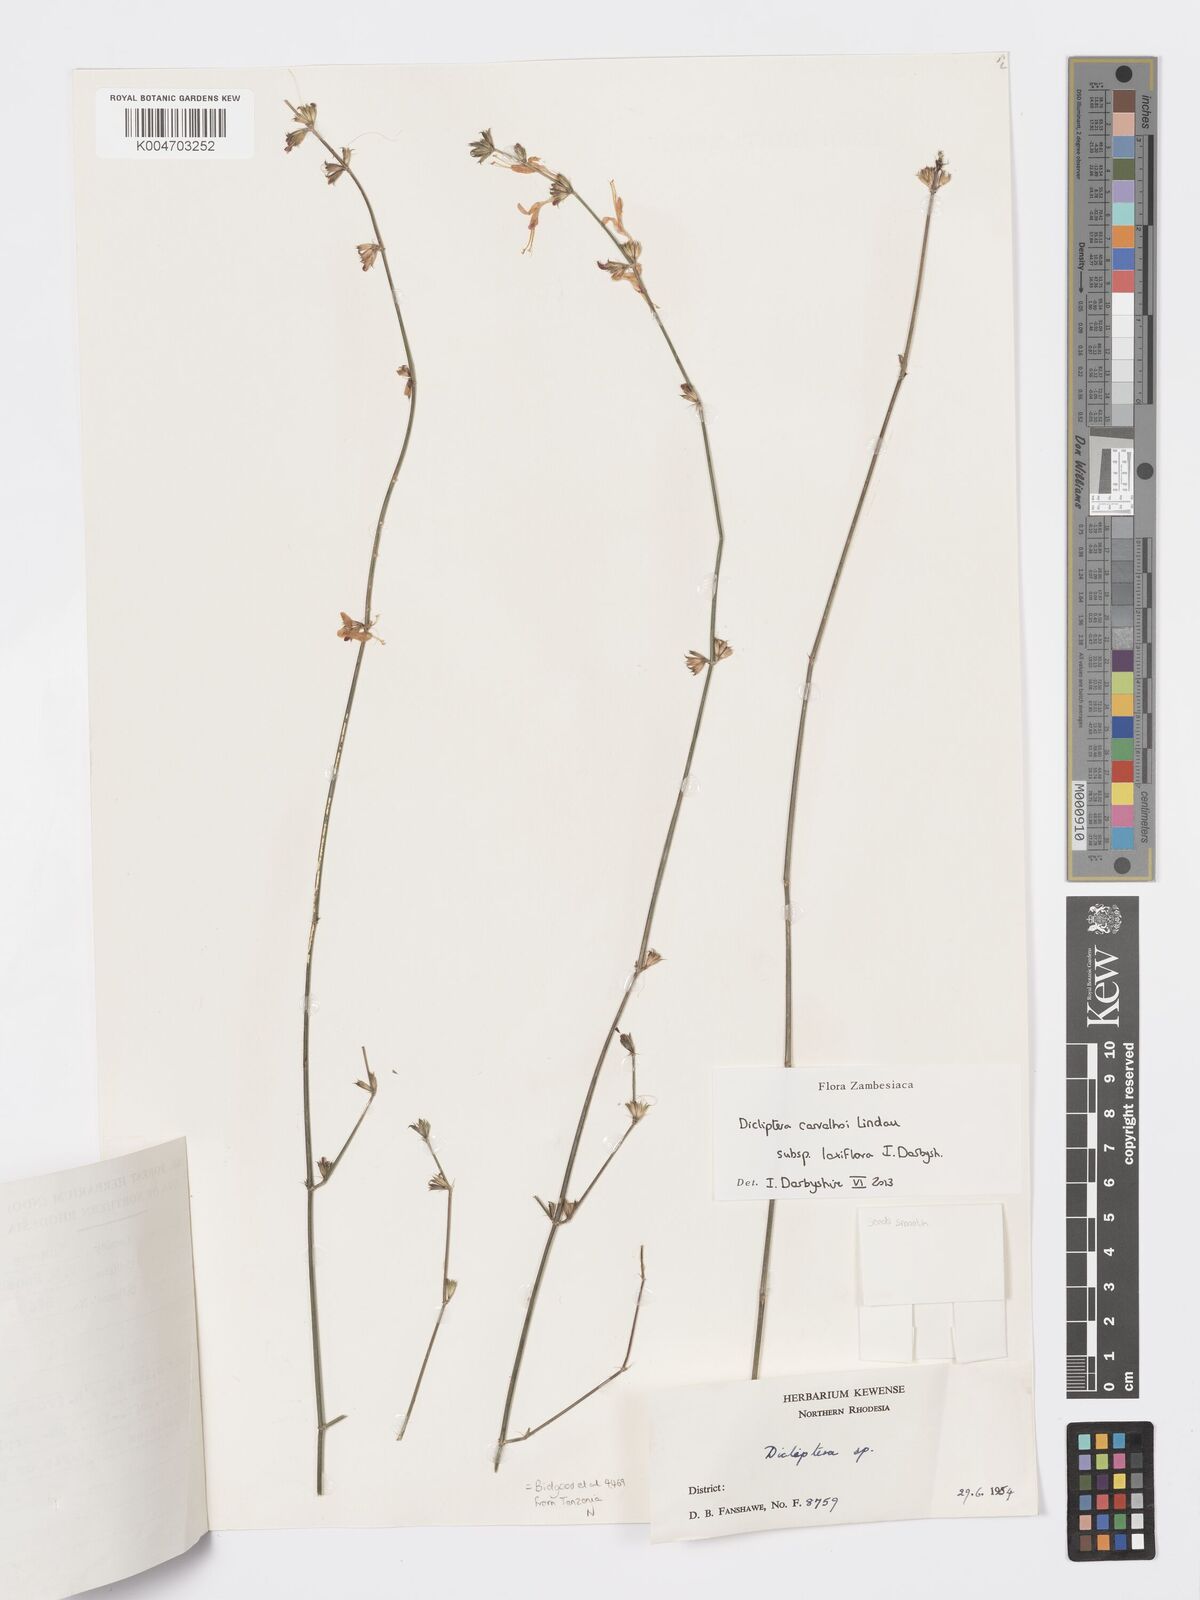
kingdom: Plantae
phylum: Tracheophyta
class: Magnoliopsida
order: Lamiales
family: Acanthaceae
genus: Dicliptera
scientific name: Dicliptera carvalhoi
